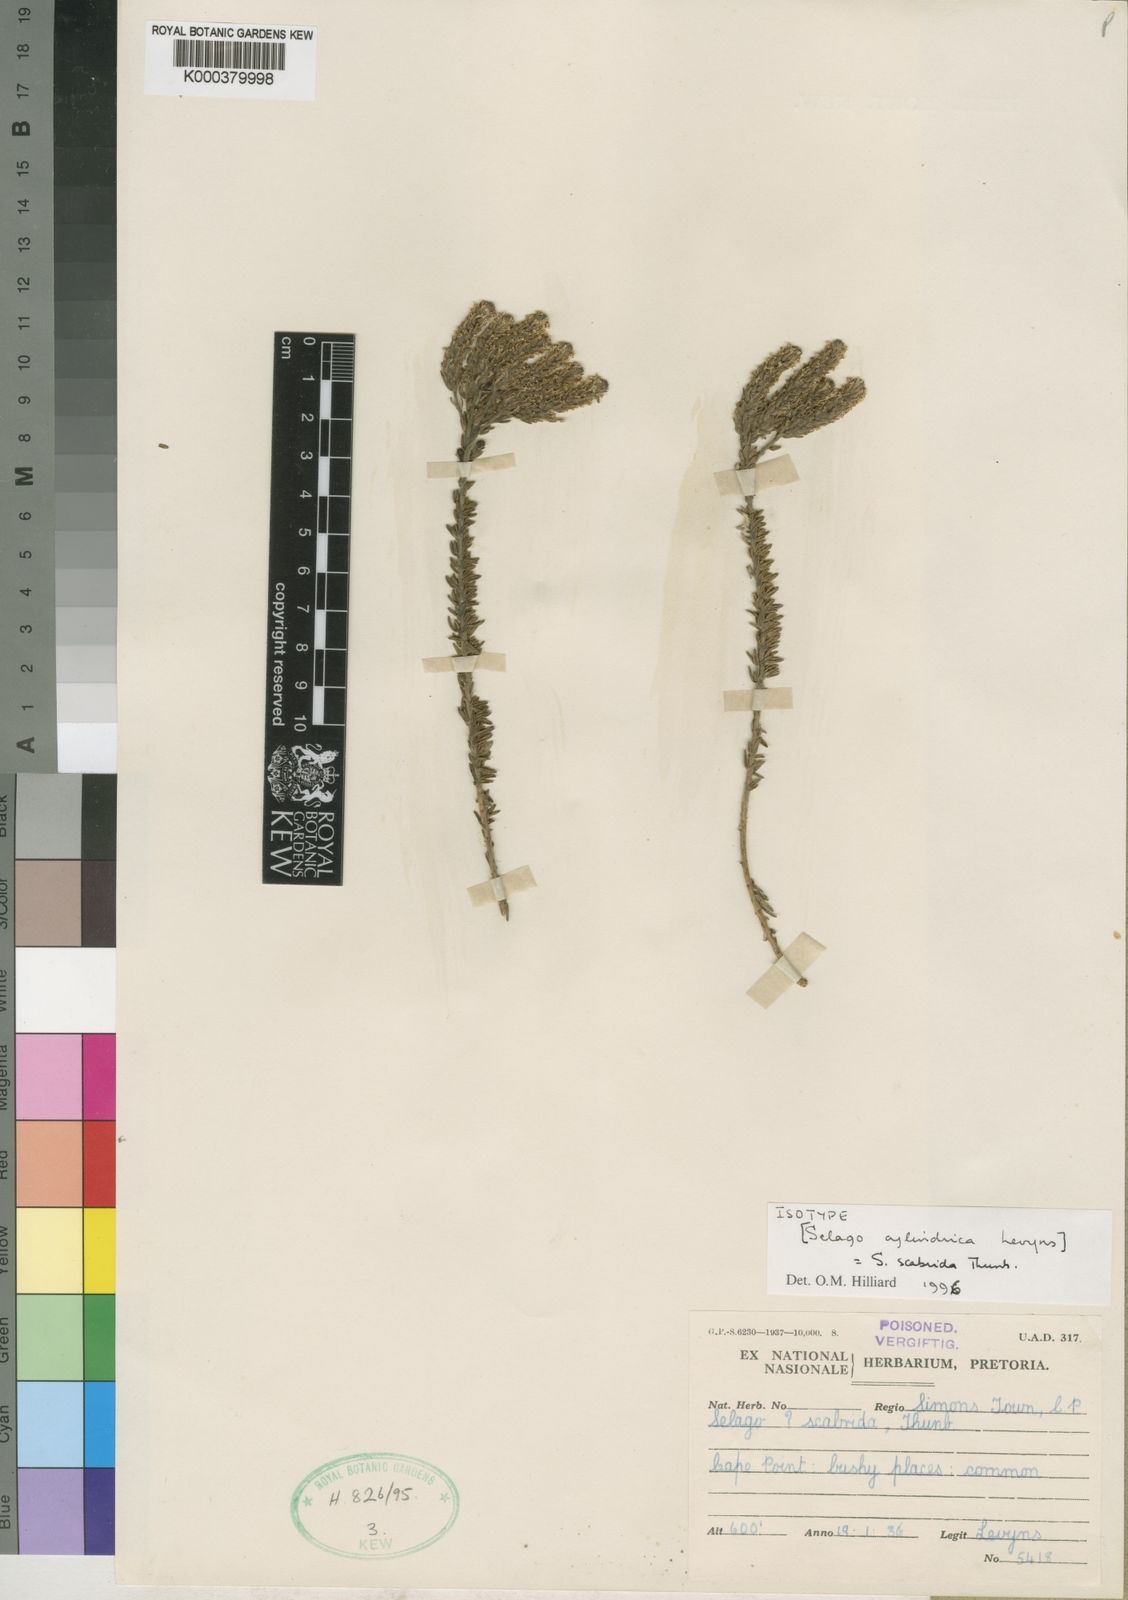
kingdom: Plantae
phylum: Tracheophyta
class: Magnoliopsida
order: Lamiales
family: Scrophulariaceae
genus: Selago
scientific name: Selago scabrida
